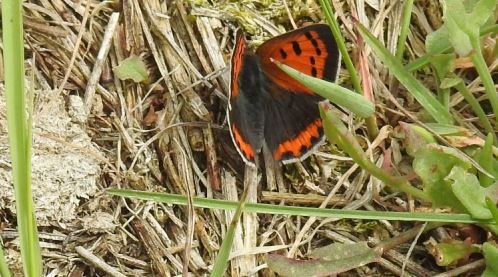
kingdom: Animalia
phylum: Arthropoda
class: Insecta
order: Lepidoptera
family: Lycaenidae
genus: Lycaena
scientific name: Lycaena phlaeas
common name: American Copper
